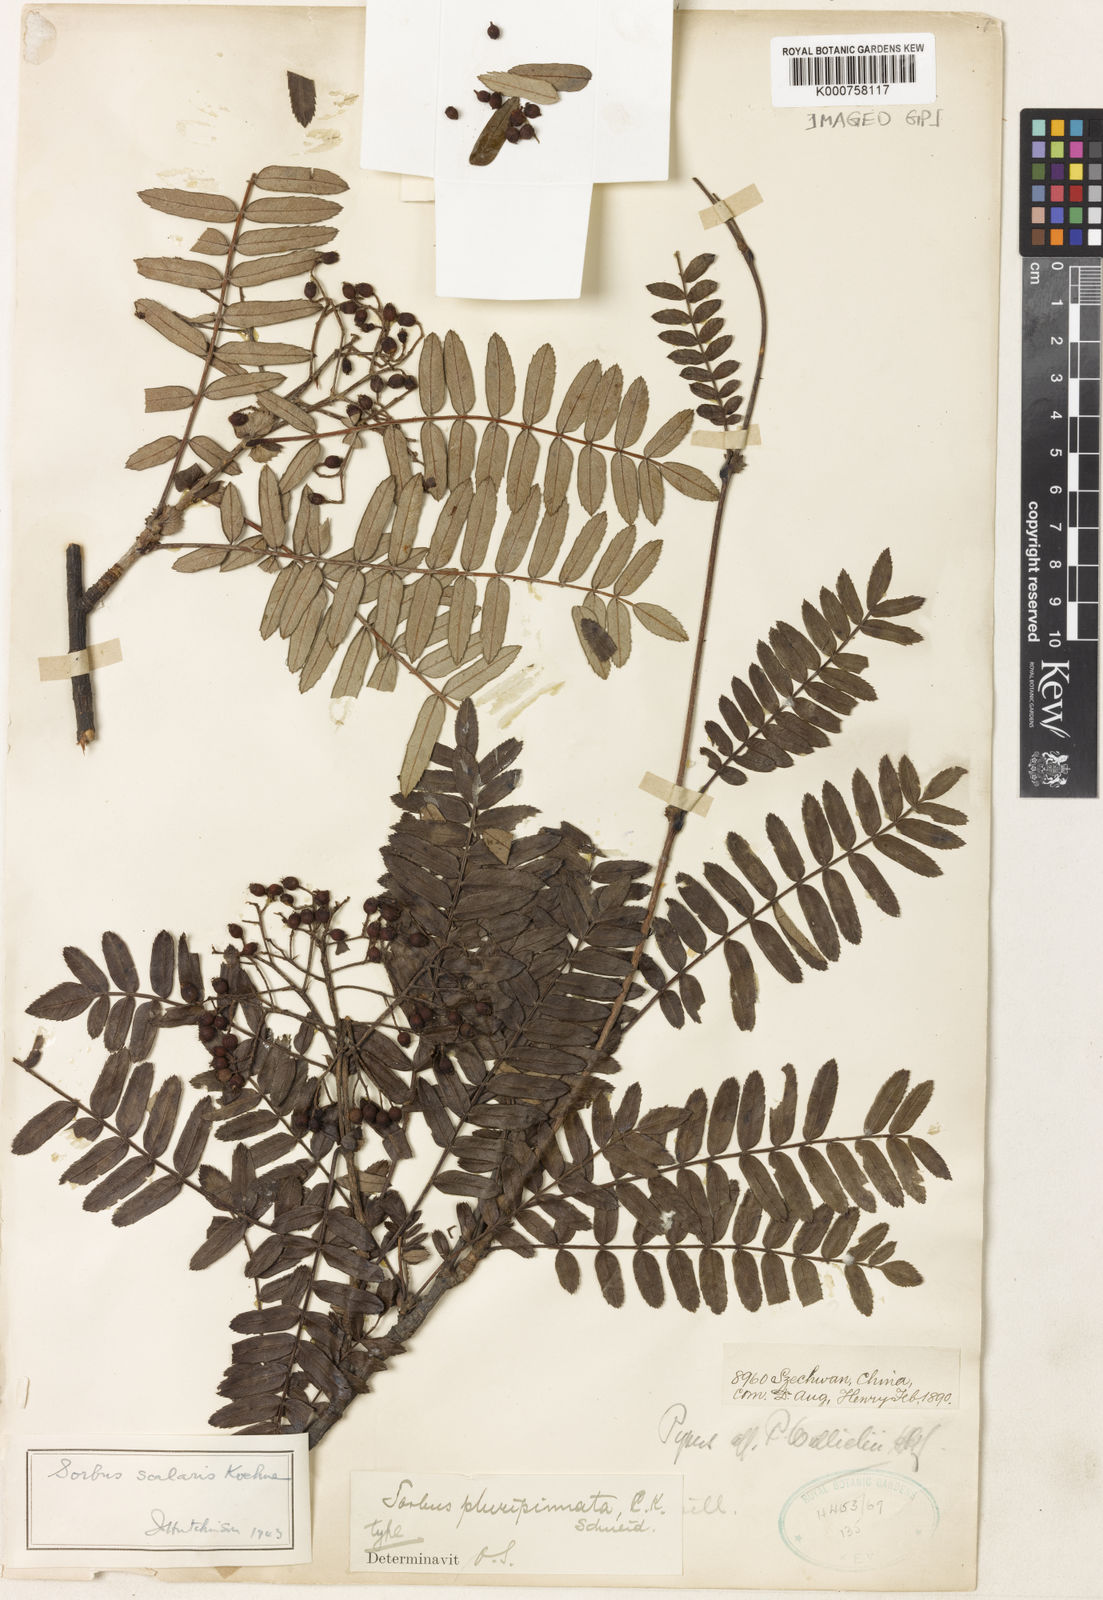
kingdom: Plantae
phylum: Tracheophyta
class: Magnoliopsida
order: Rosales
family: Rosaceae
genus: Sorbus
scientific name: Sorbus scalaris
